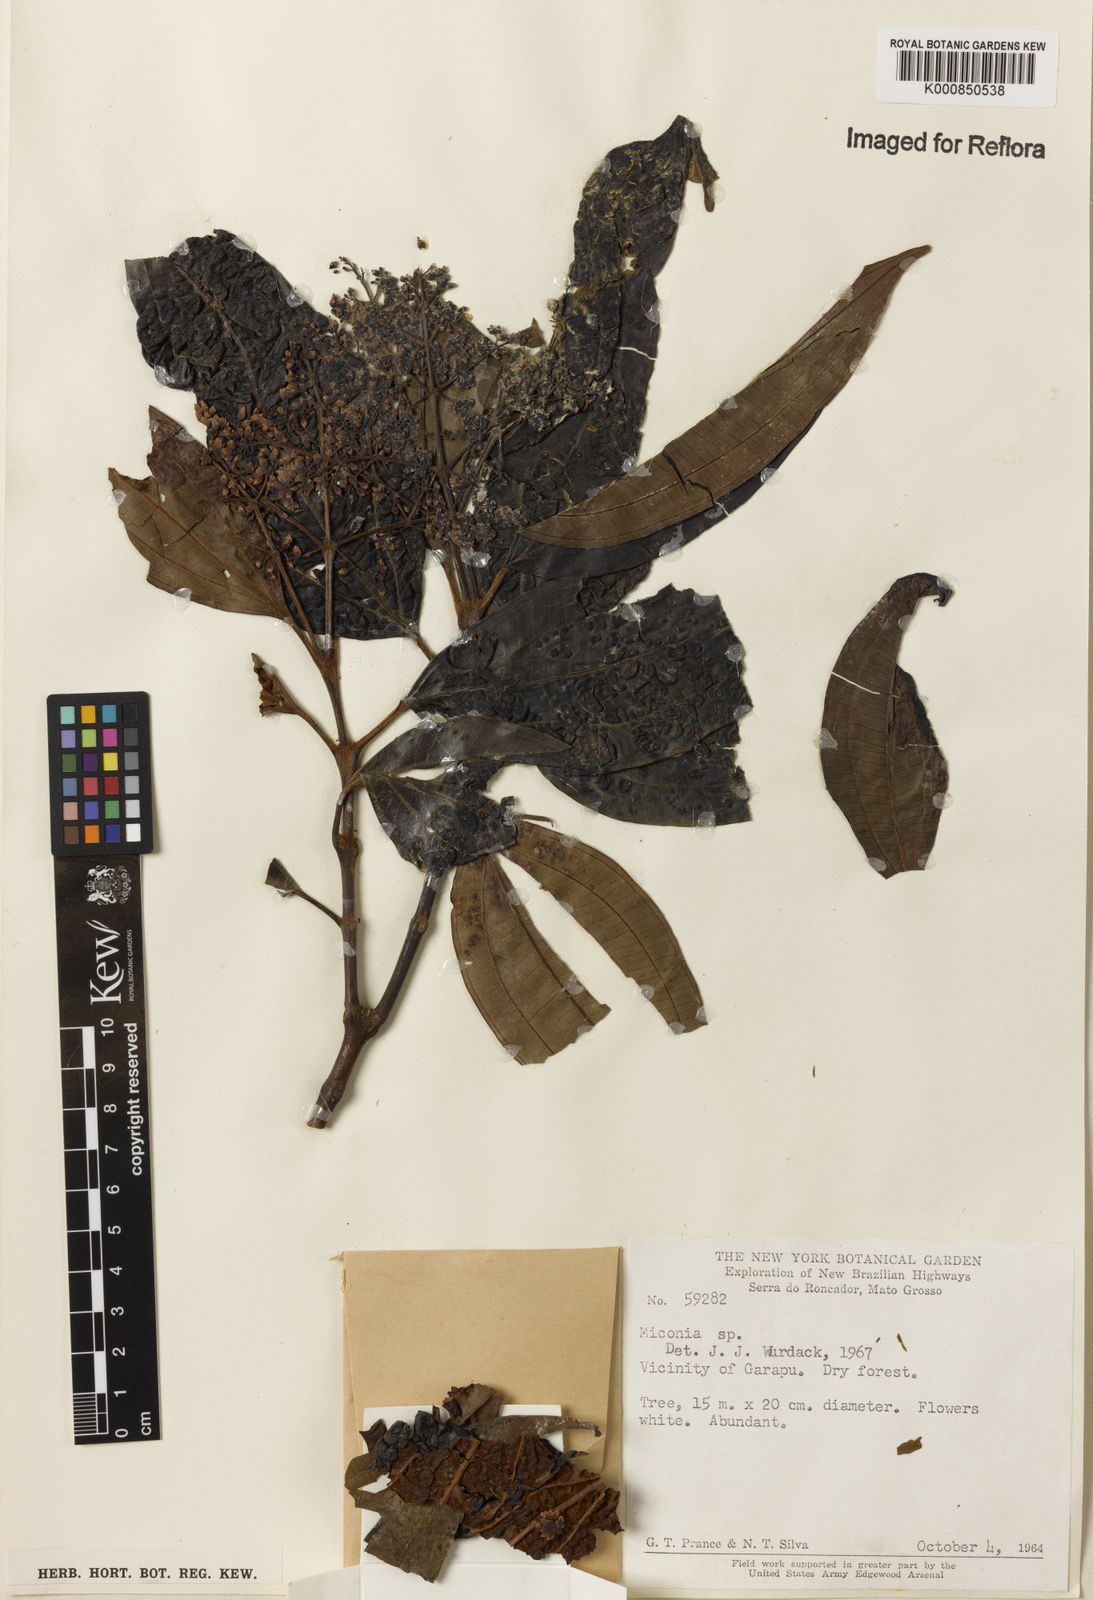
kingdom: Plantae
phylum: Tracheophyta
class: Magnoliopsida
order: Myrtales
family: Melastomataceae
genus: Miconia
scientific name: Miconia
